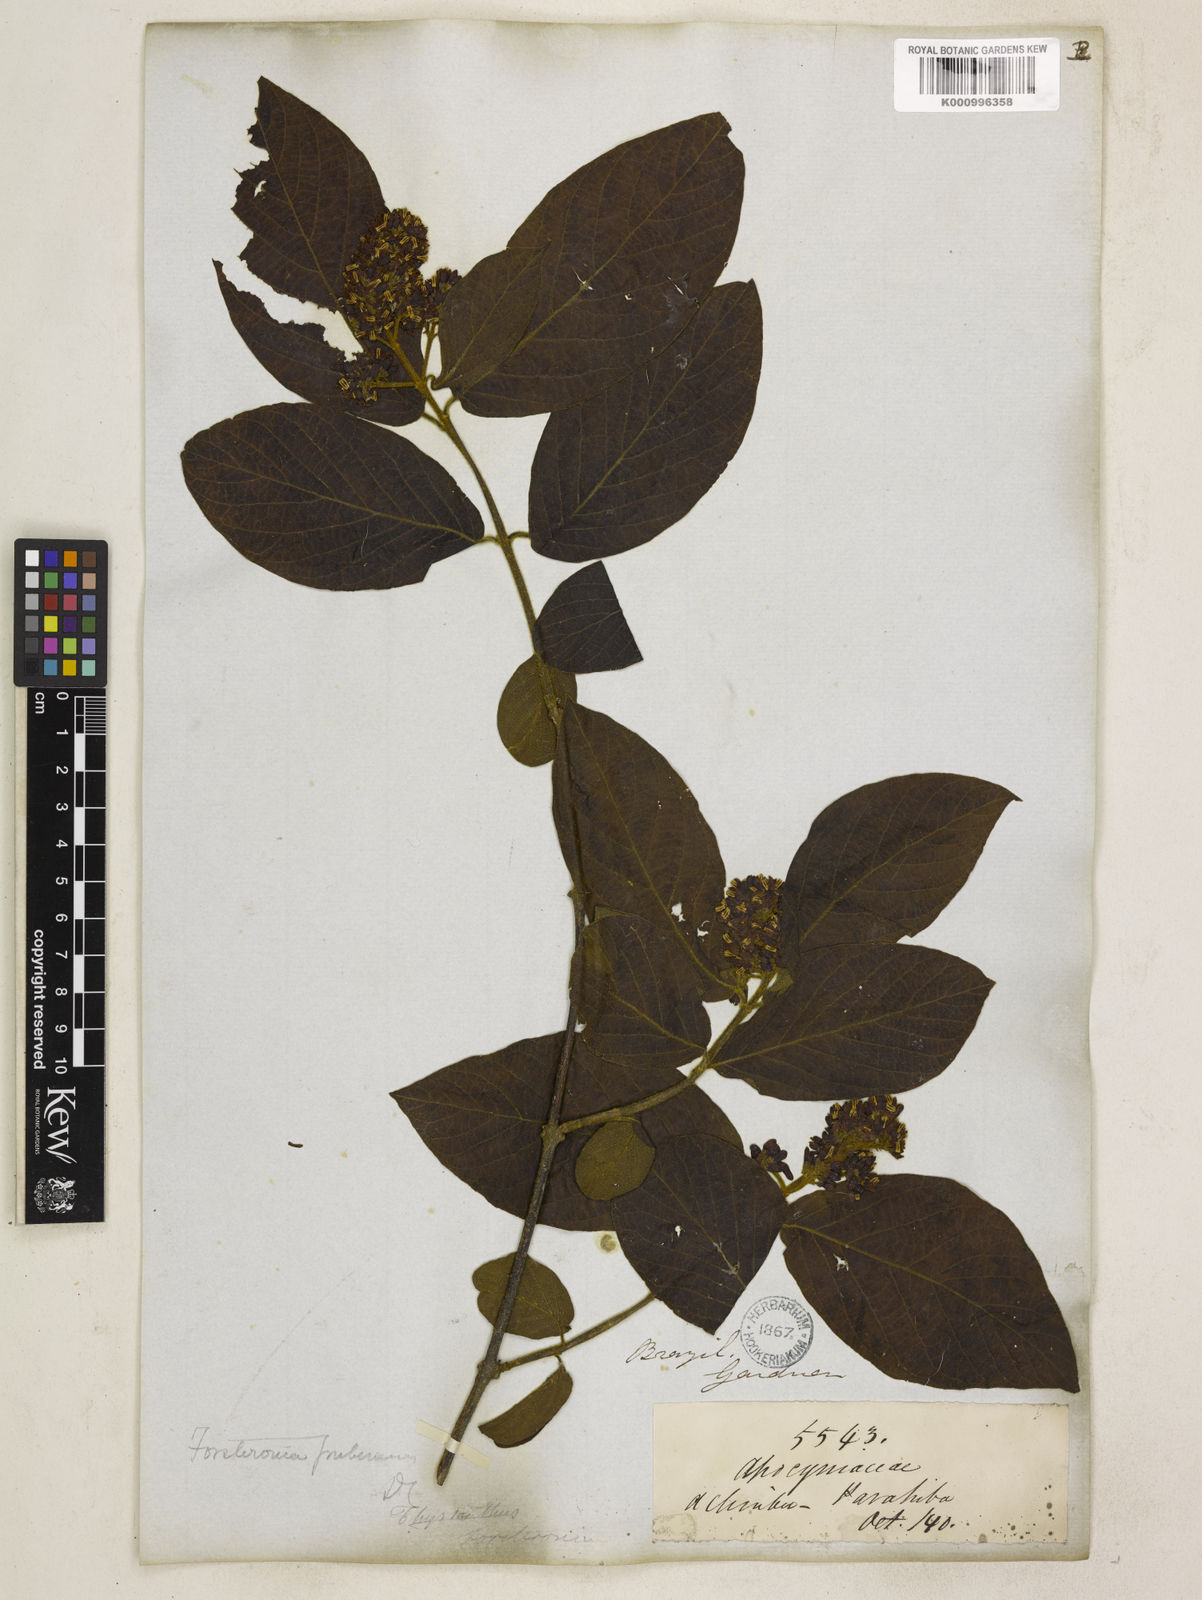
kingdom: Plantae
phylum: Tracheophyta
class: Magnoliopsida
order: Gentianales
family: Apocynaceae
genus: Forsteronia
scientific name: Forsteronia
